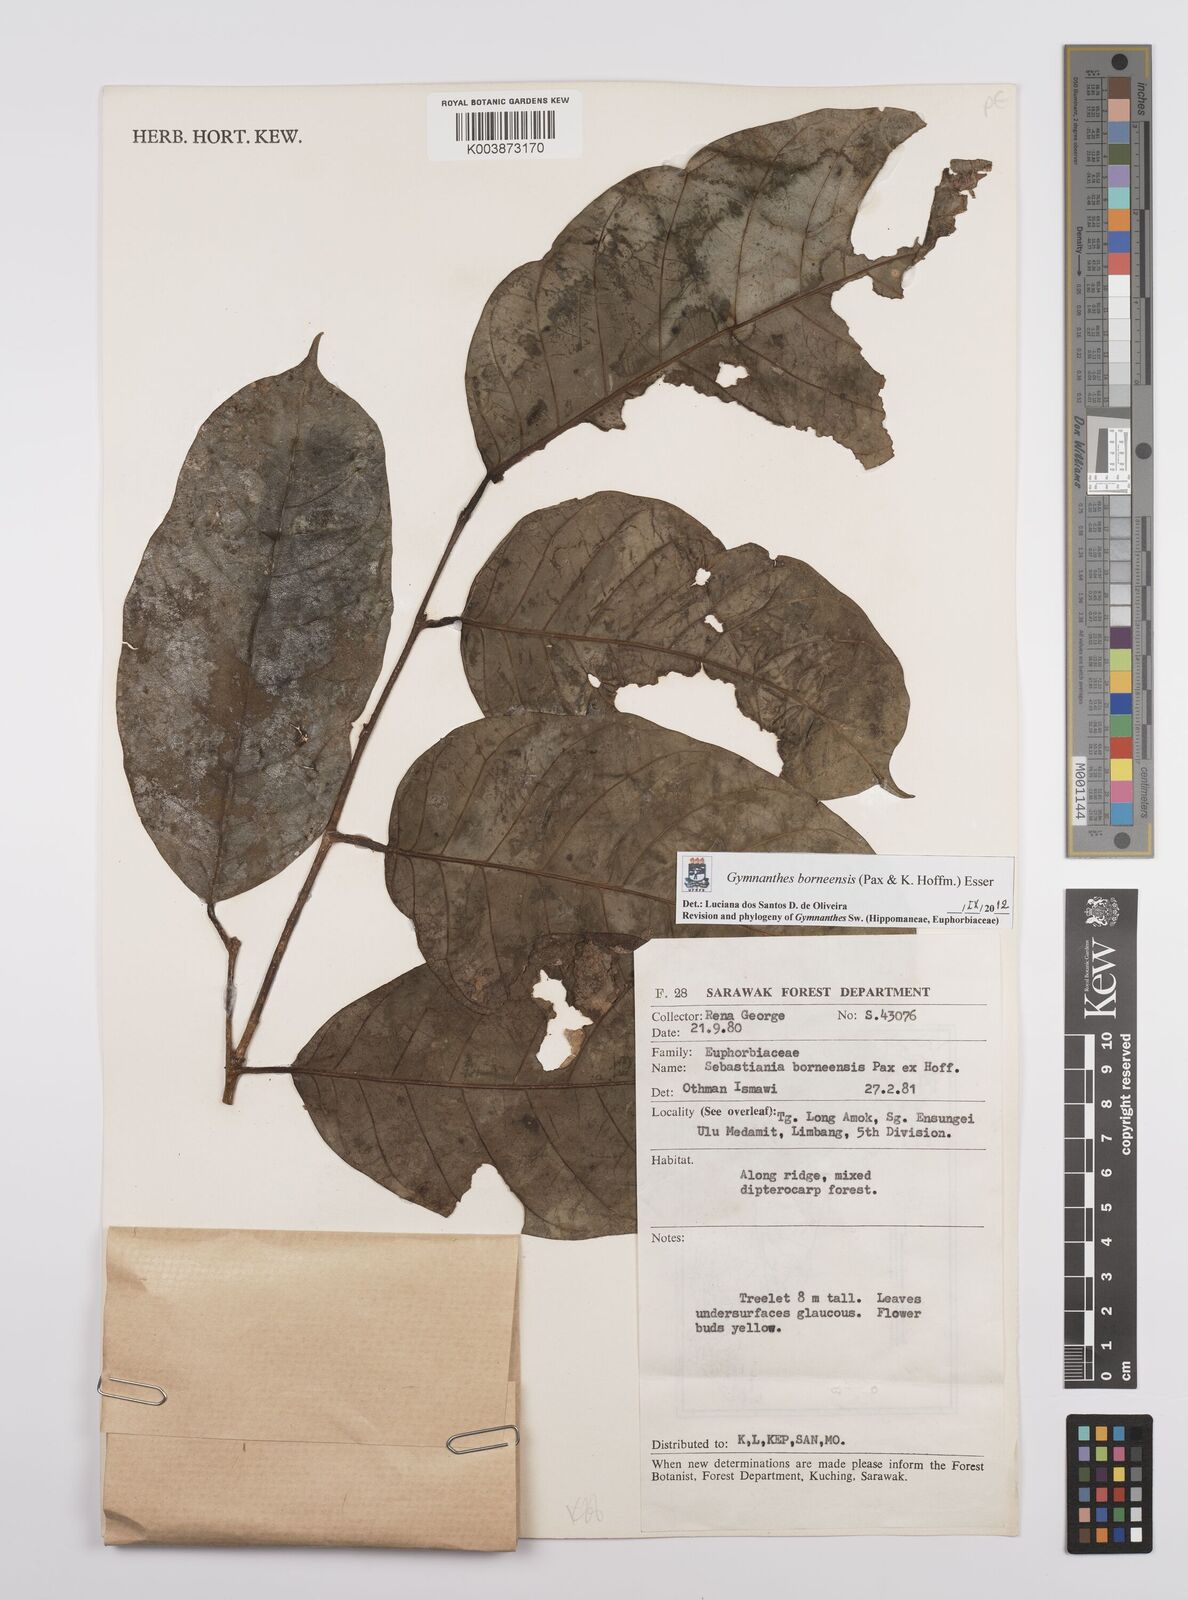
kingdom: Plantae
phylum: Tracheophyta
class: Magnoliopsida
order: Malpighiales
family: Euphorbiaceae
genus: Gymnanthes
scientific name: Gymnanthes borneensis
